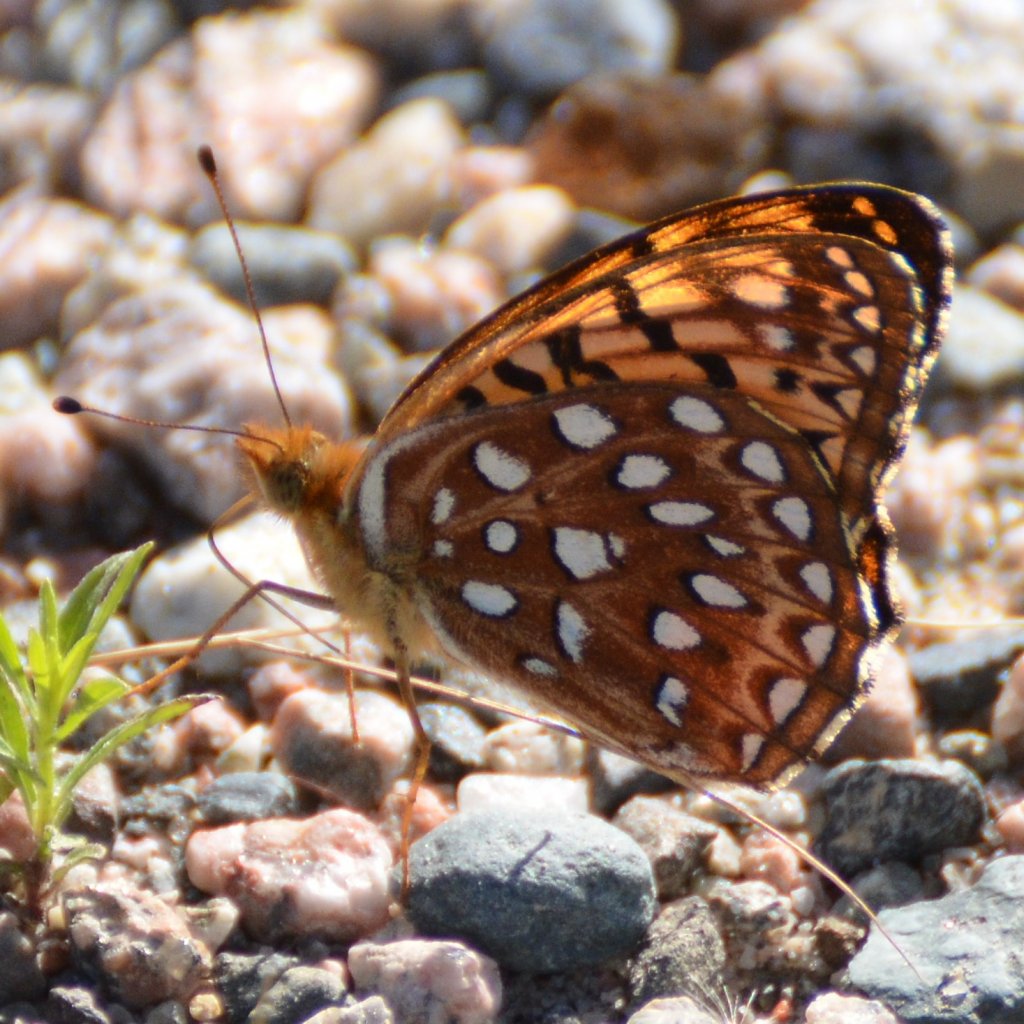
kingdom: Animalia
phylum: Arthropoda
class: Insecta
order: Lepidoptera
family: Nymphalidae
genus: Speyeria
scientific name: Speyeria aphrodite
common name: Aphrodite Fritillary
